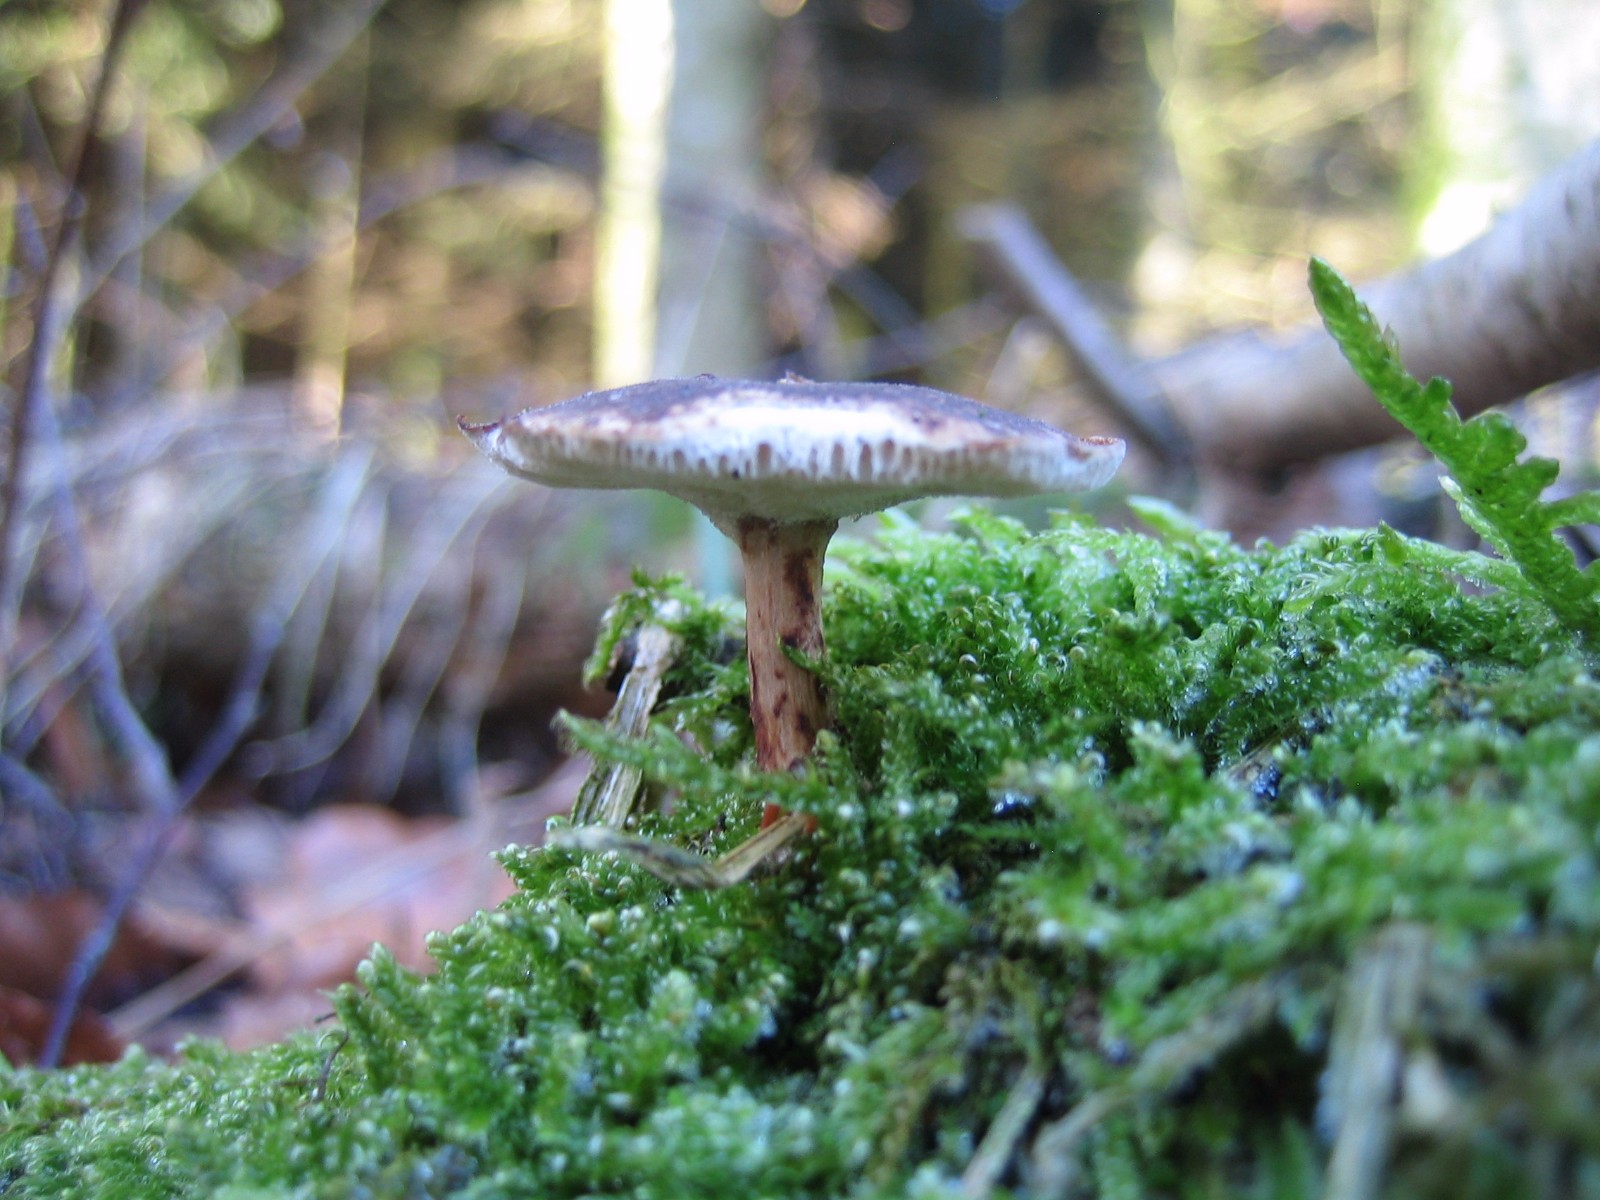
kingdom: Fungi
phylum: Basidiomycota
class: Agaricomycetes
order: Polyporales
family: Polyporaceae
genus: Lentinus
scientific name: Lentinus brumalis
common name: vinter-stilkporesvamp
